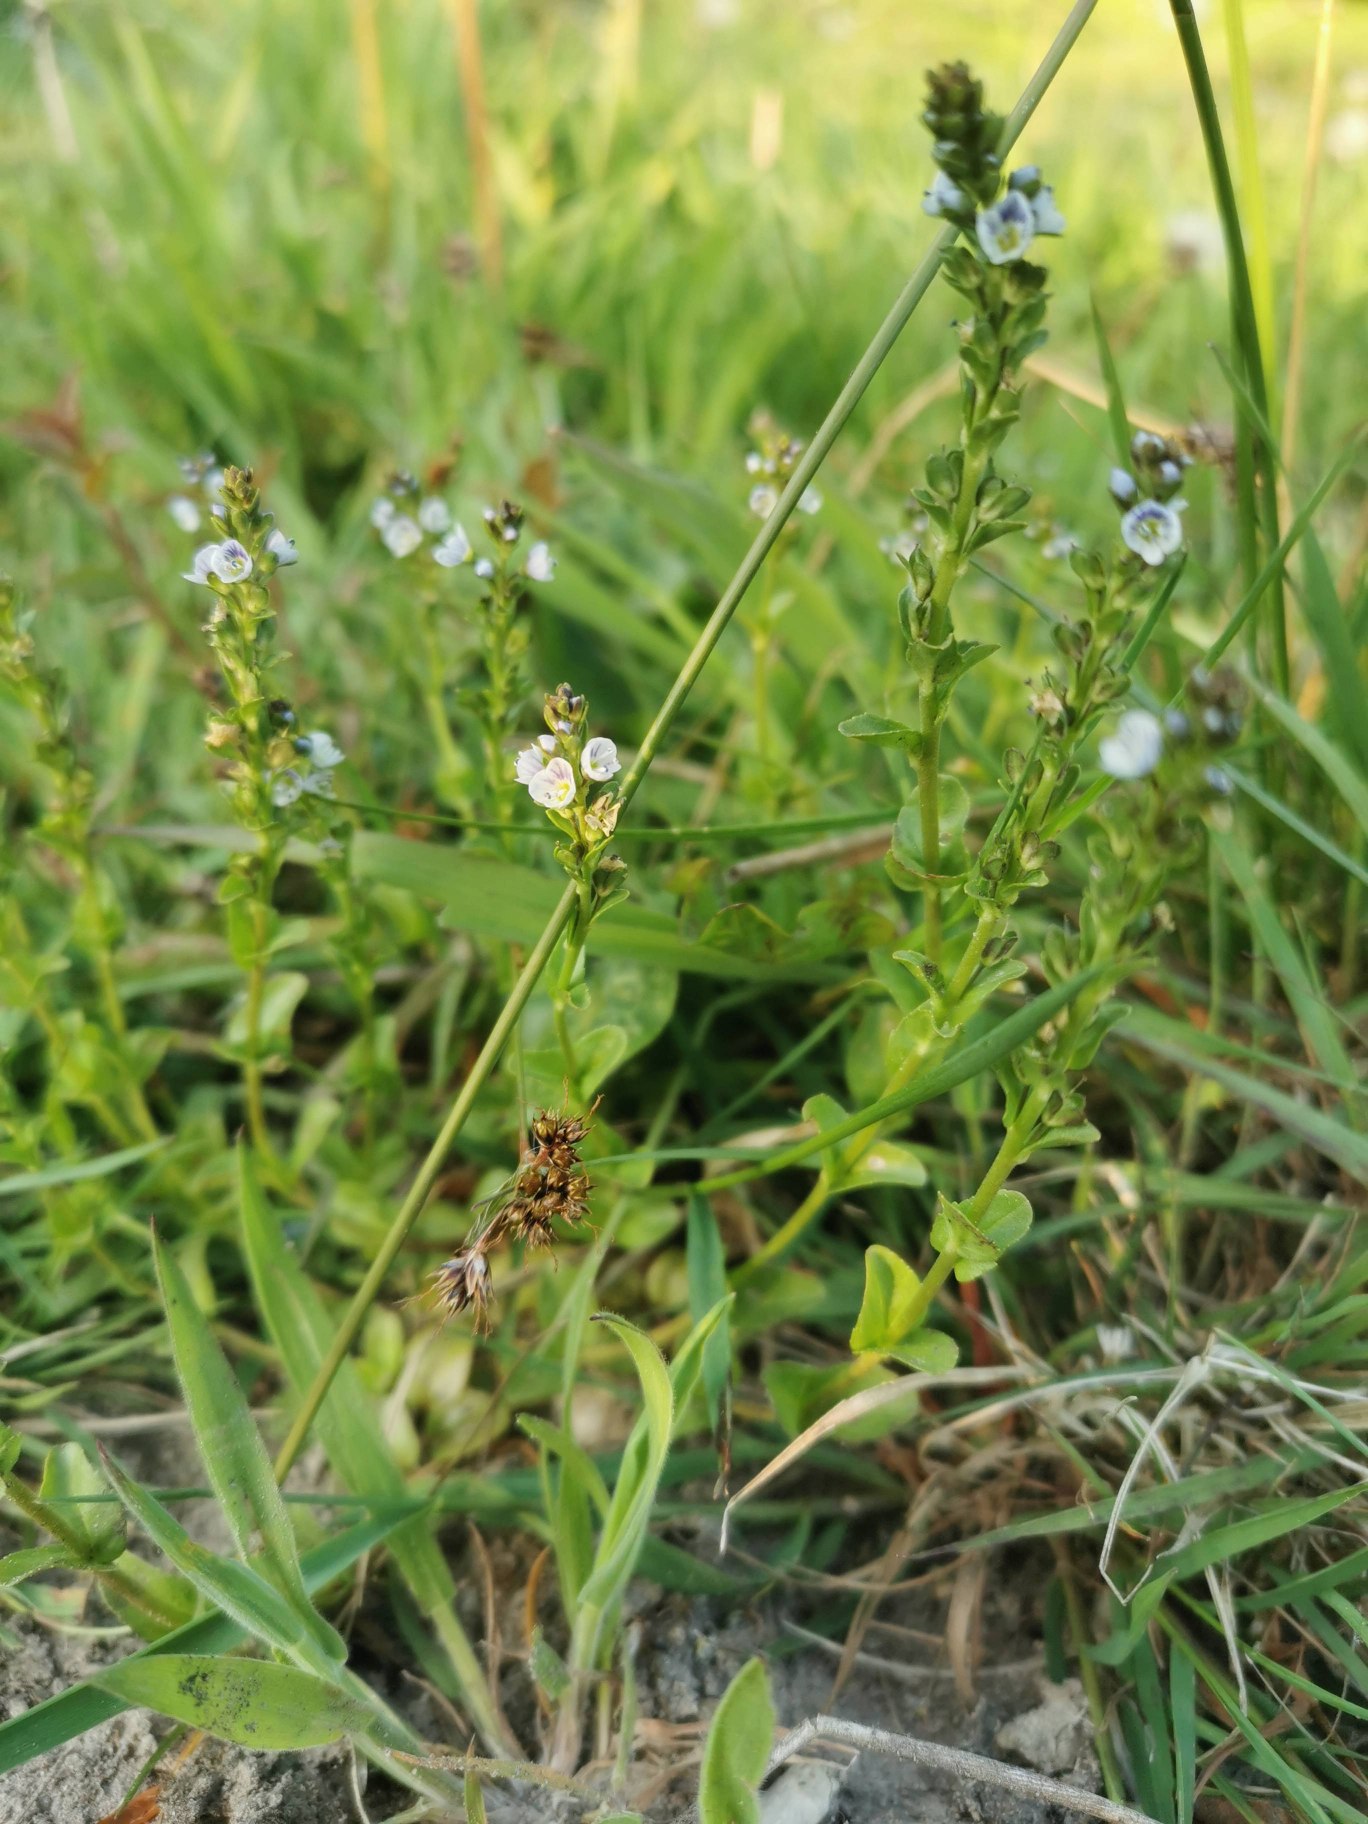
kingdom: Plantae
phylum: Tracheophyta
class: Magnoliopsida
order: Lamiales
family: Plantaginaceae
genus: Veronica
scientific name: Veronica serpyllifolia
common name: Glat ærenpris
